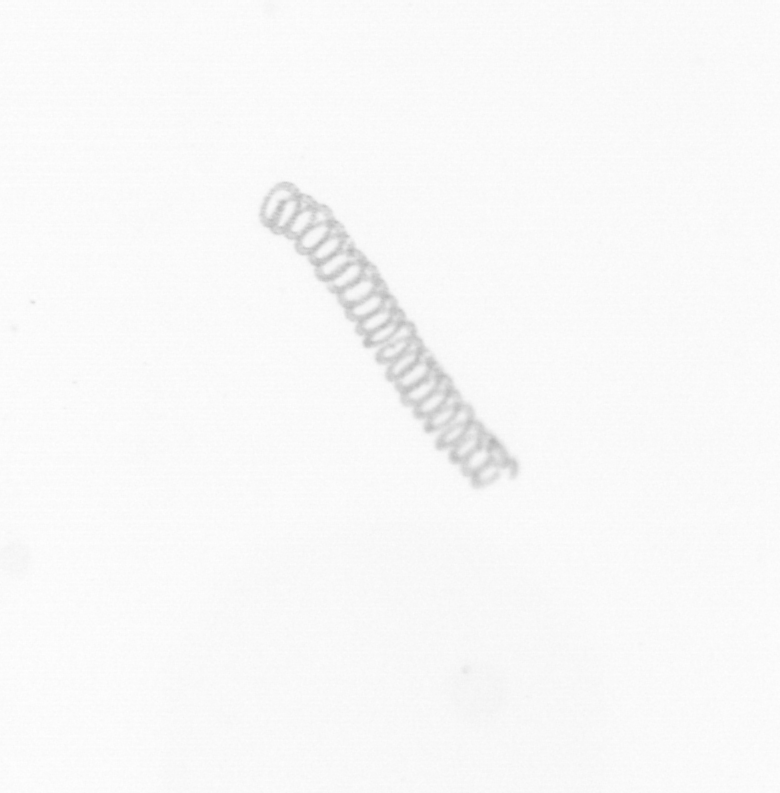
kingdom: Chromista
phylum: Ochrophyta
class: Bacillariophyceae
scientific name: Bacillariophyceae
